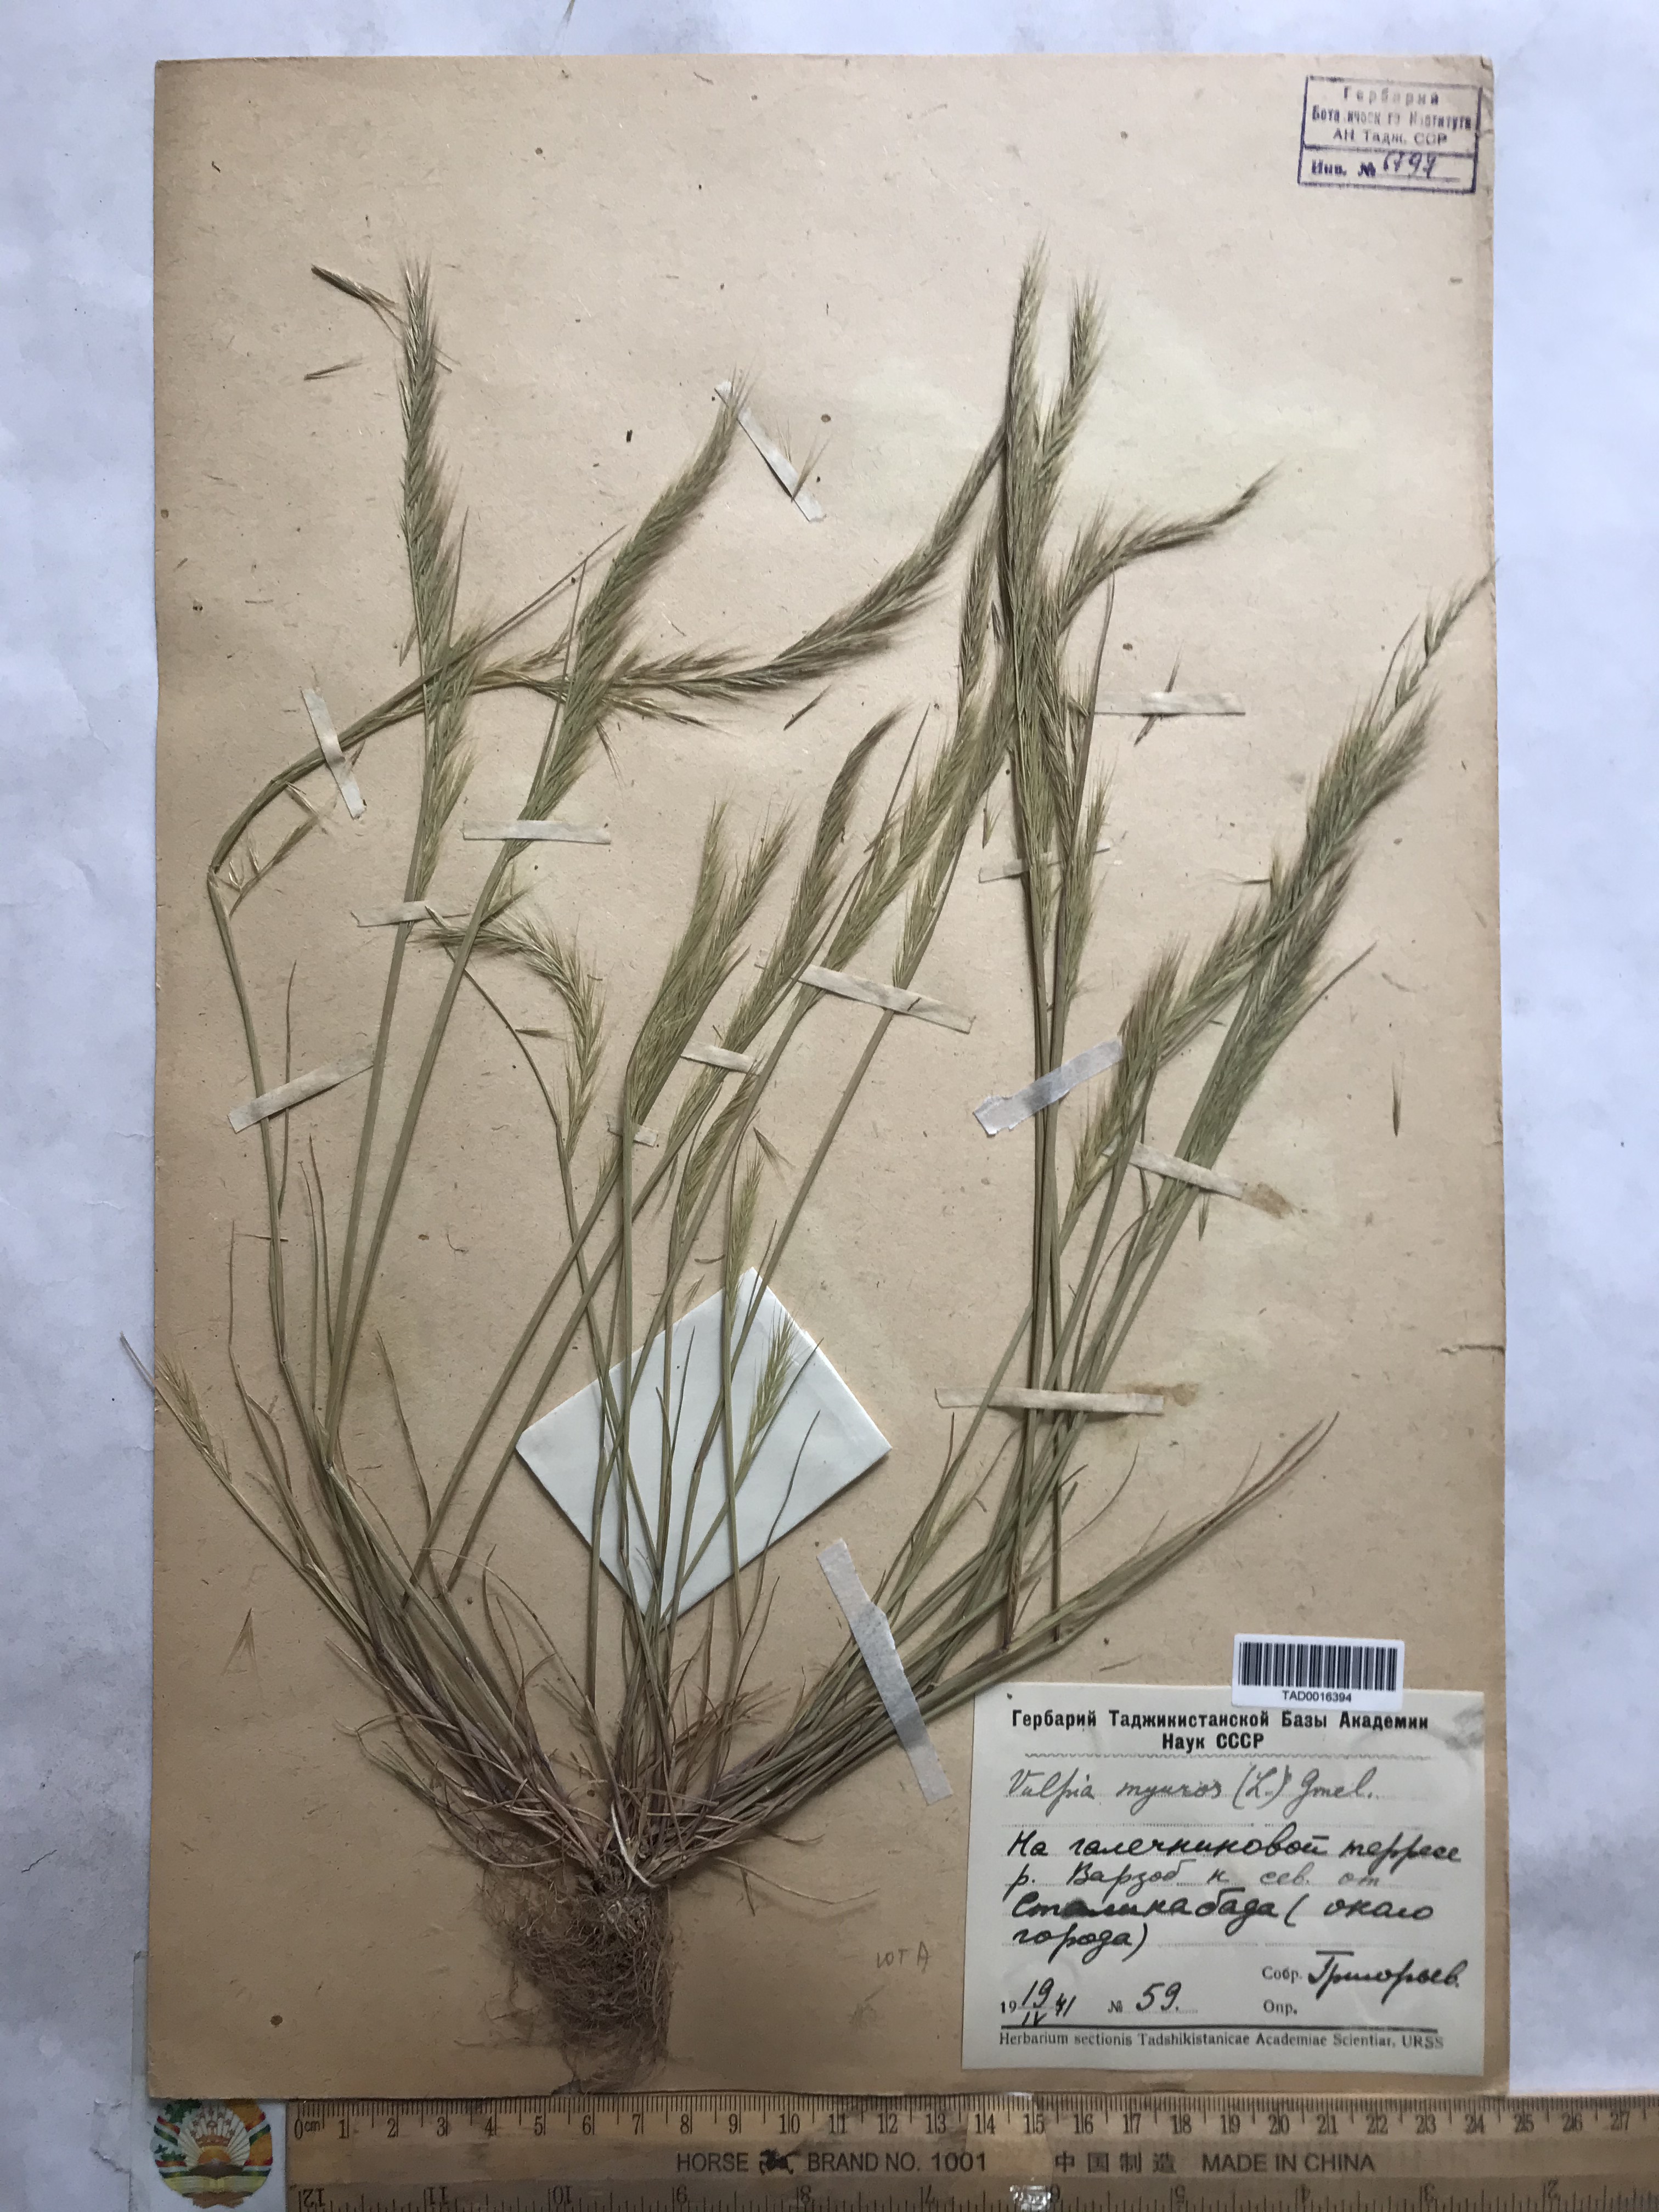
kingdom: Plantae
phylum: Tracheophyta
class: Liliopsida
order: Poales
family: Poaceae
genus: Festuca
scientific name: Festuca myuros
